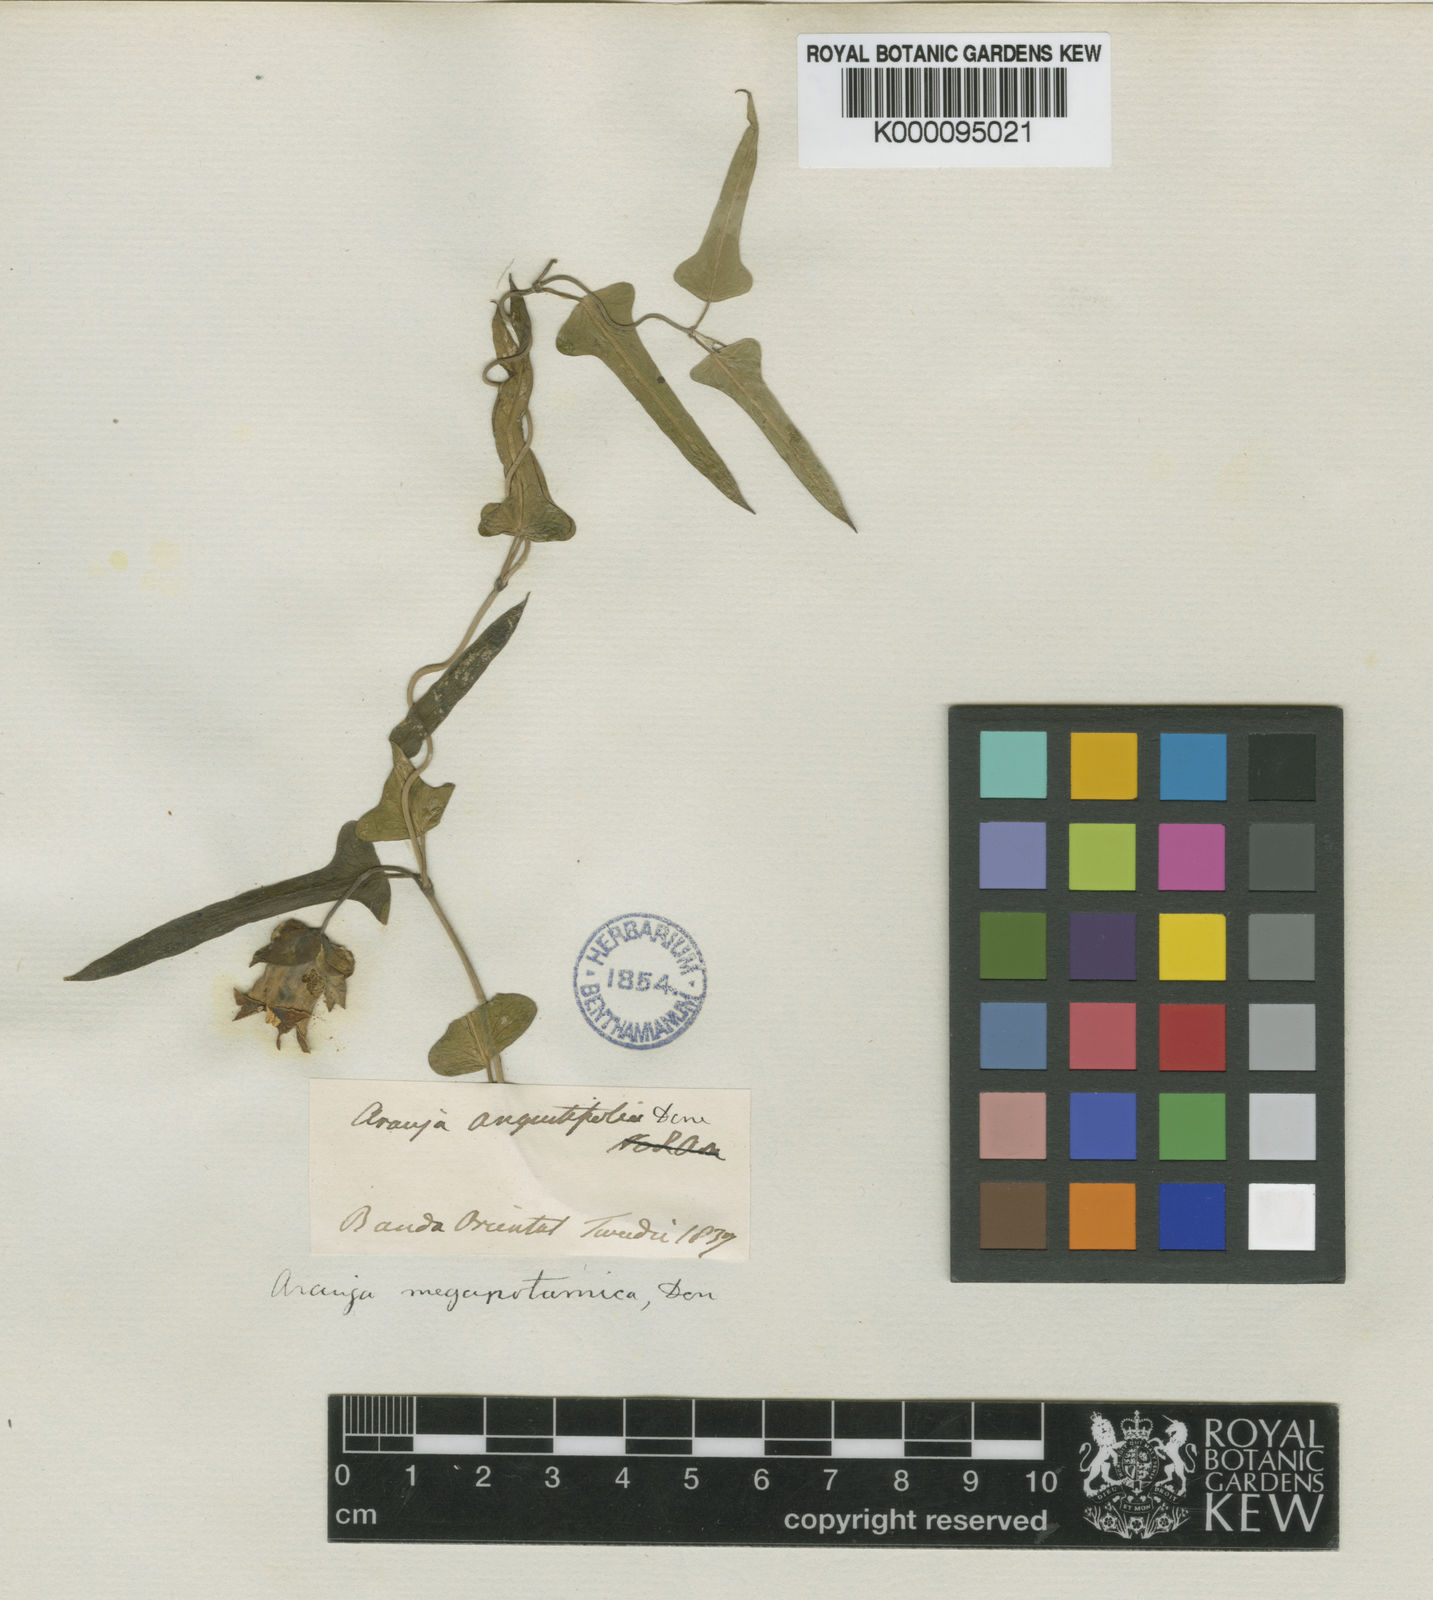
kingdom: Plantae
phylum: Tracheophyta
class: Magnoliopsida
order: Gentianales
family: Apocynaceae
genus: Araujia
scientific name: Araujia megapotamica
